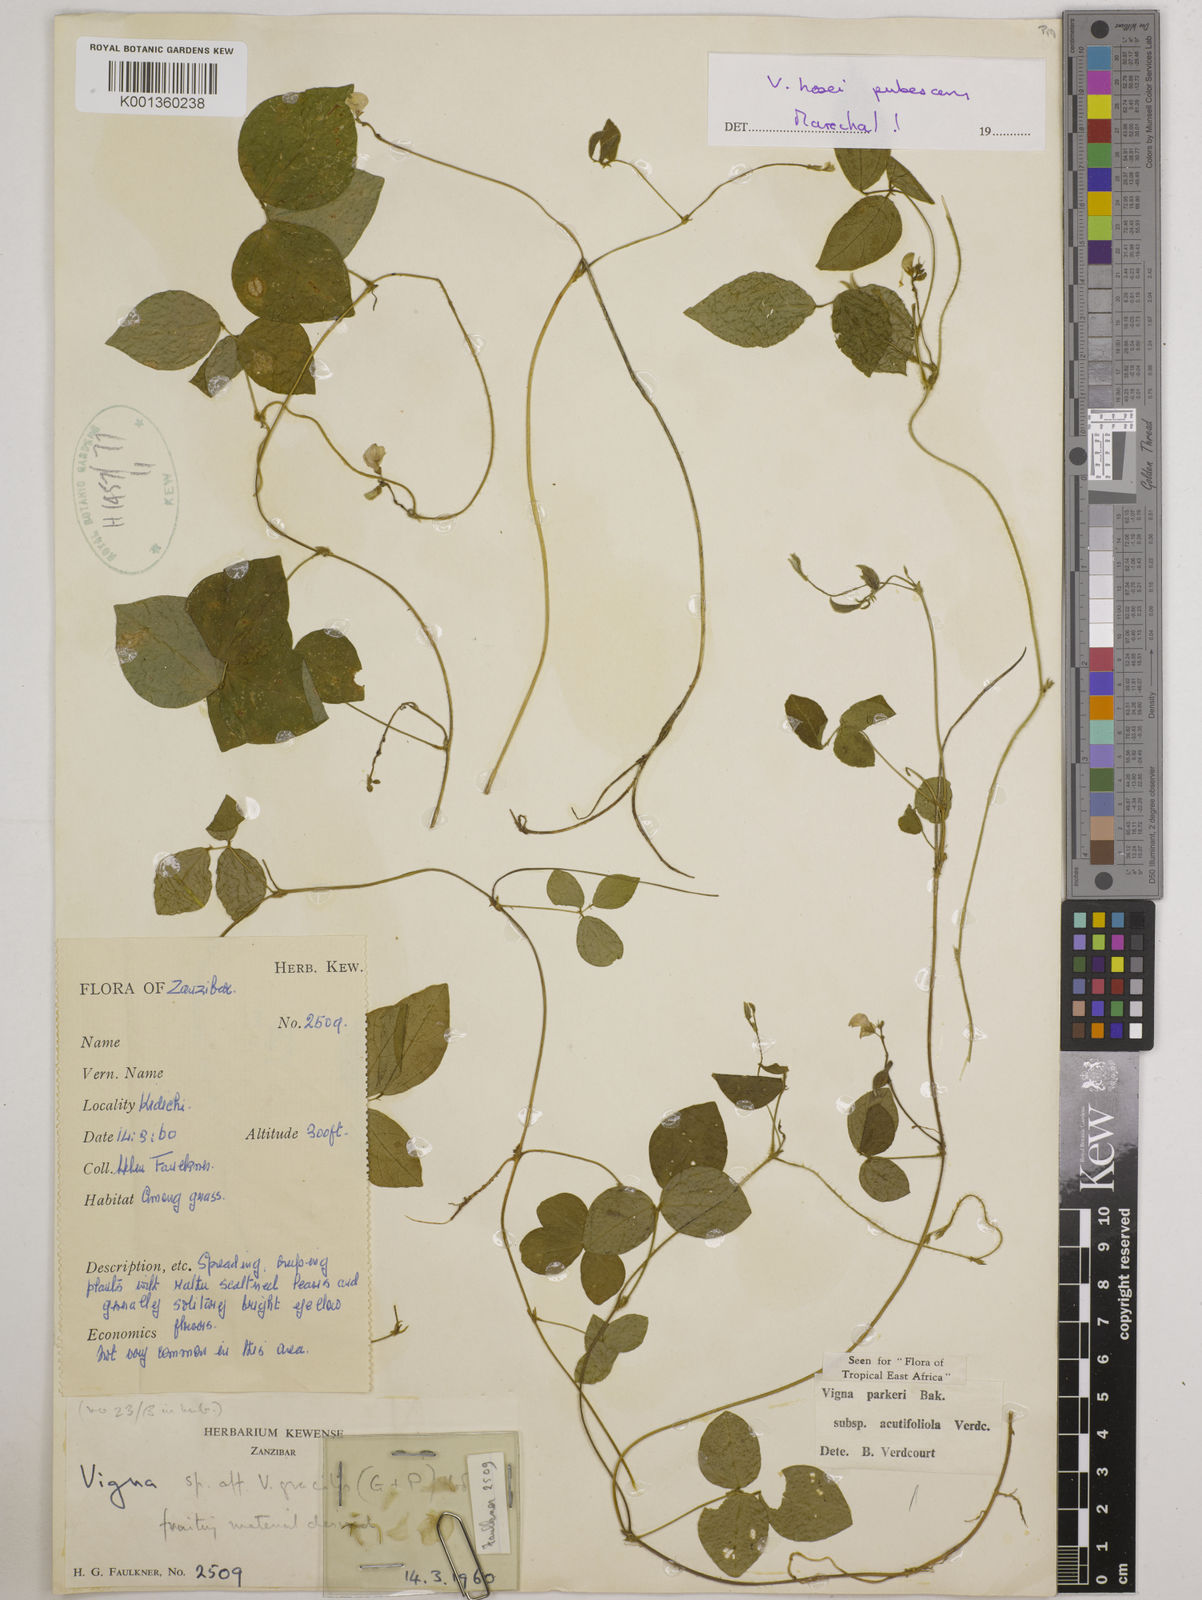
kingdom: Plantae
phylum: Tracheophyta
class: Magnoliopsida
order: Fabales
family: Fabaceae
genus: Vigna
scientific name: Vigna
